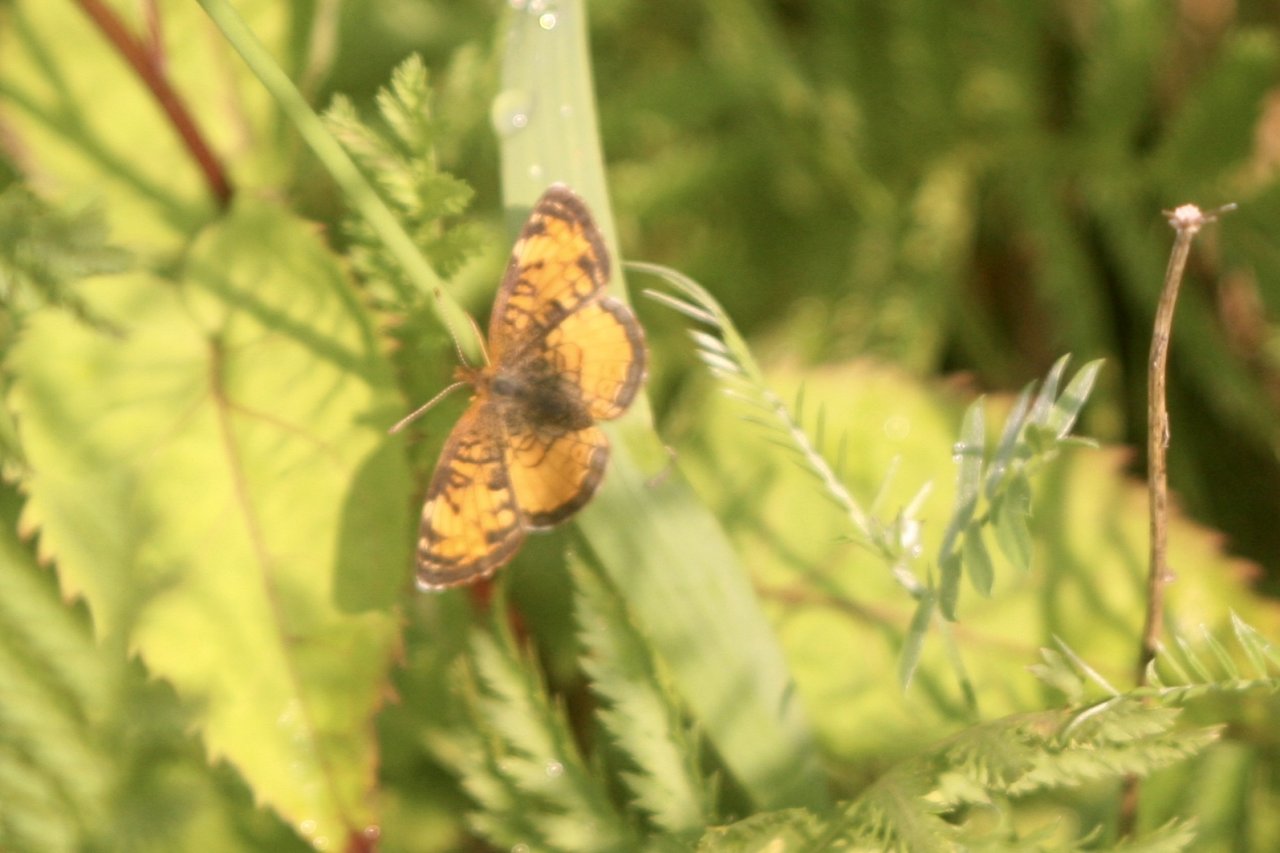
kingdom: Animalia
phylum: Arthropoda
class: Insecta
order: Lepidoptera
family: Nymphalidae
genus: Phyciodes
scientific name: Phyciodes tharos
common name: Northern Crescent
